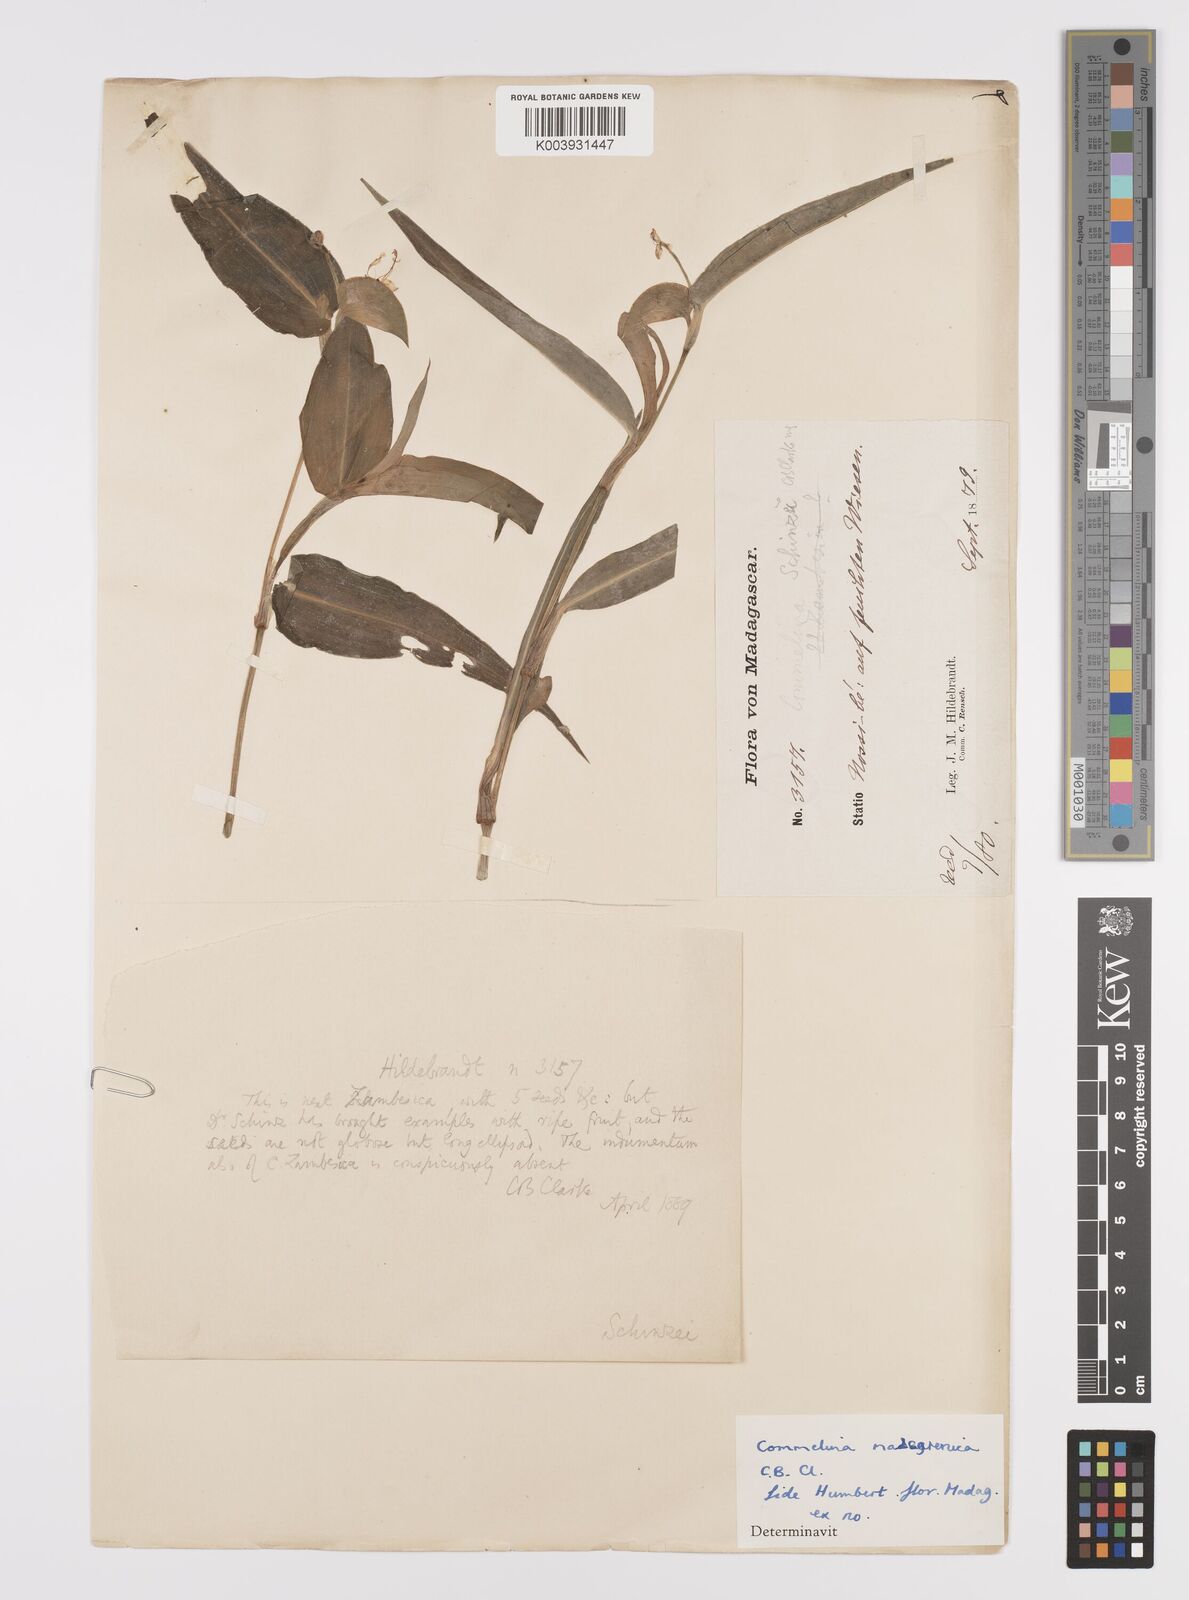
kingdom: Plantae
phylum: Tracheophyta
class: Liliopsida
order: Commelinales
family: Commelinaceae
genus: Commelina
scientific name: Commelina mascarenica
